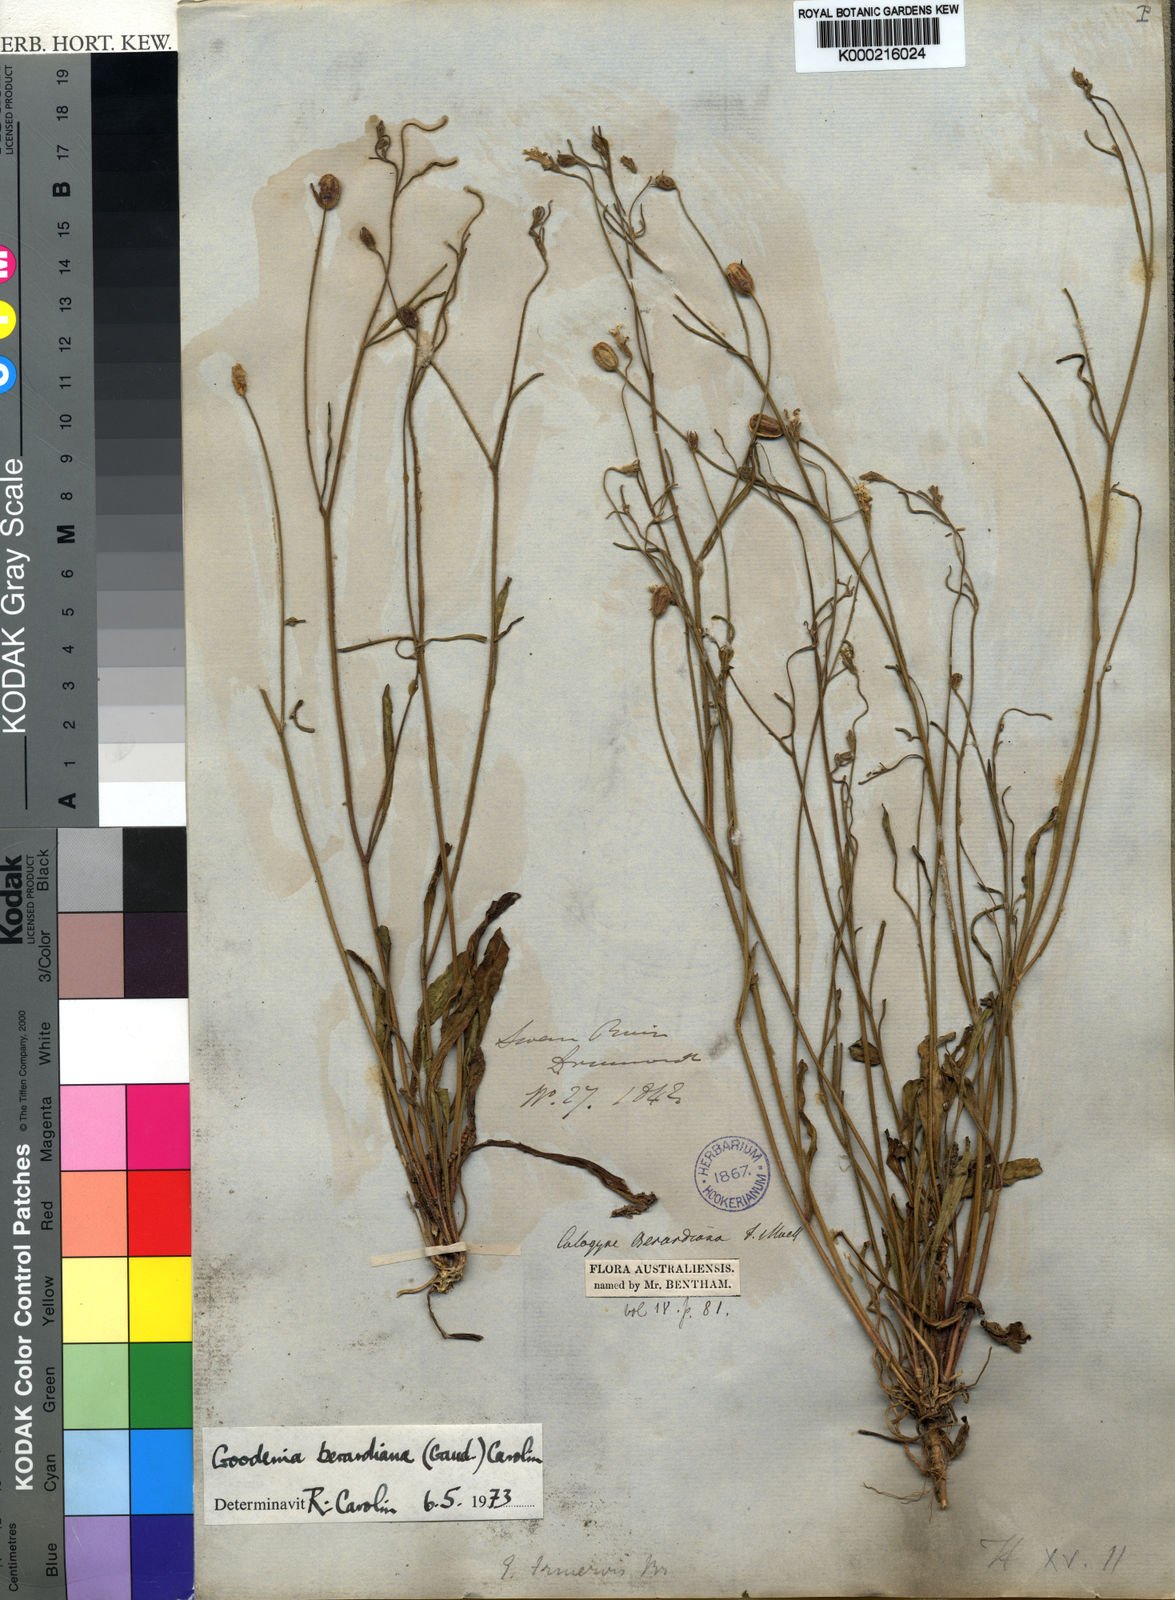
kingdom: Plantae
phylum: Tracheophyta
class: Magnoliopsida
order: Asterales
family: Goodeniaceae
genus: Goodenia
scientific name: Goodenia berardiana
